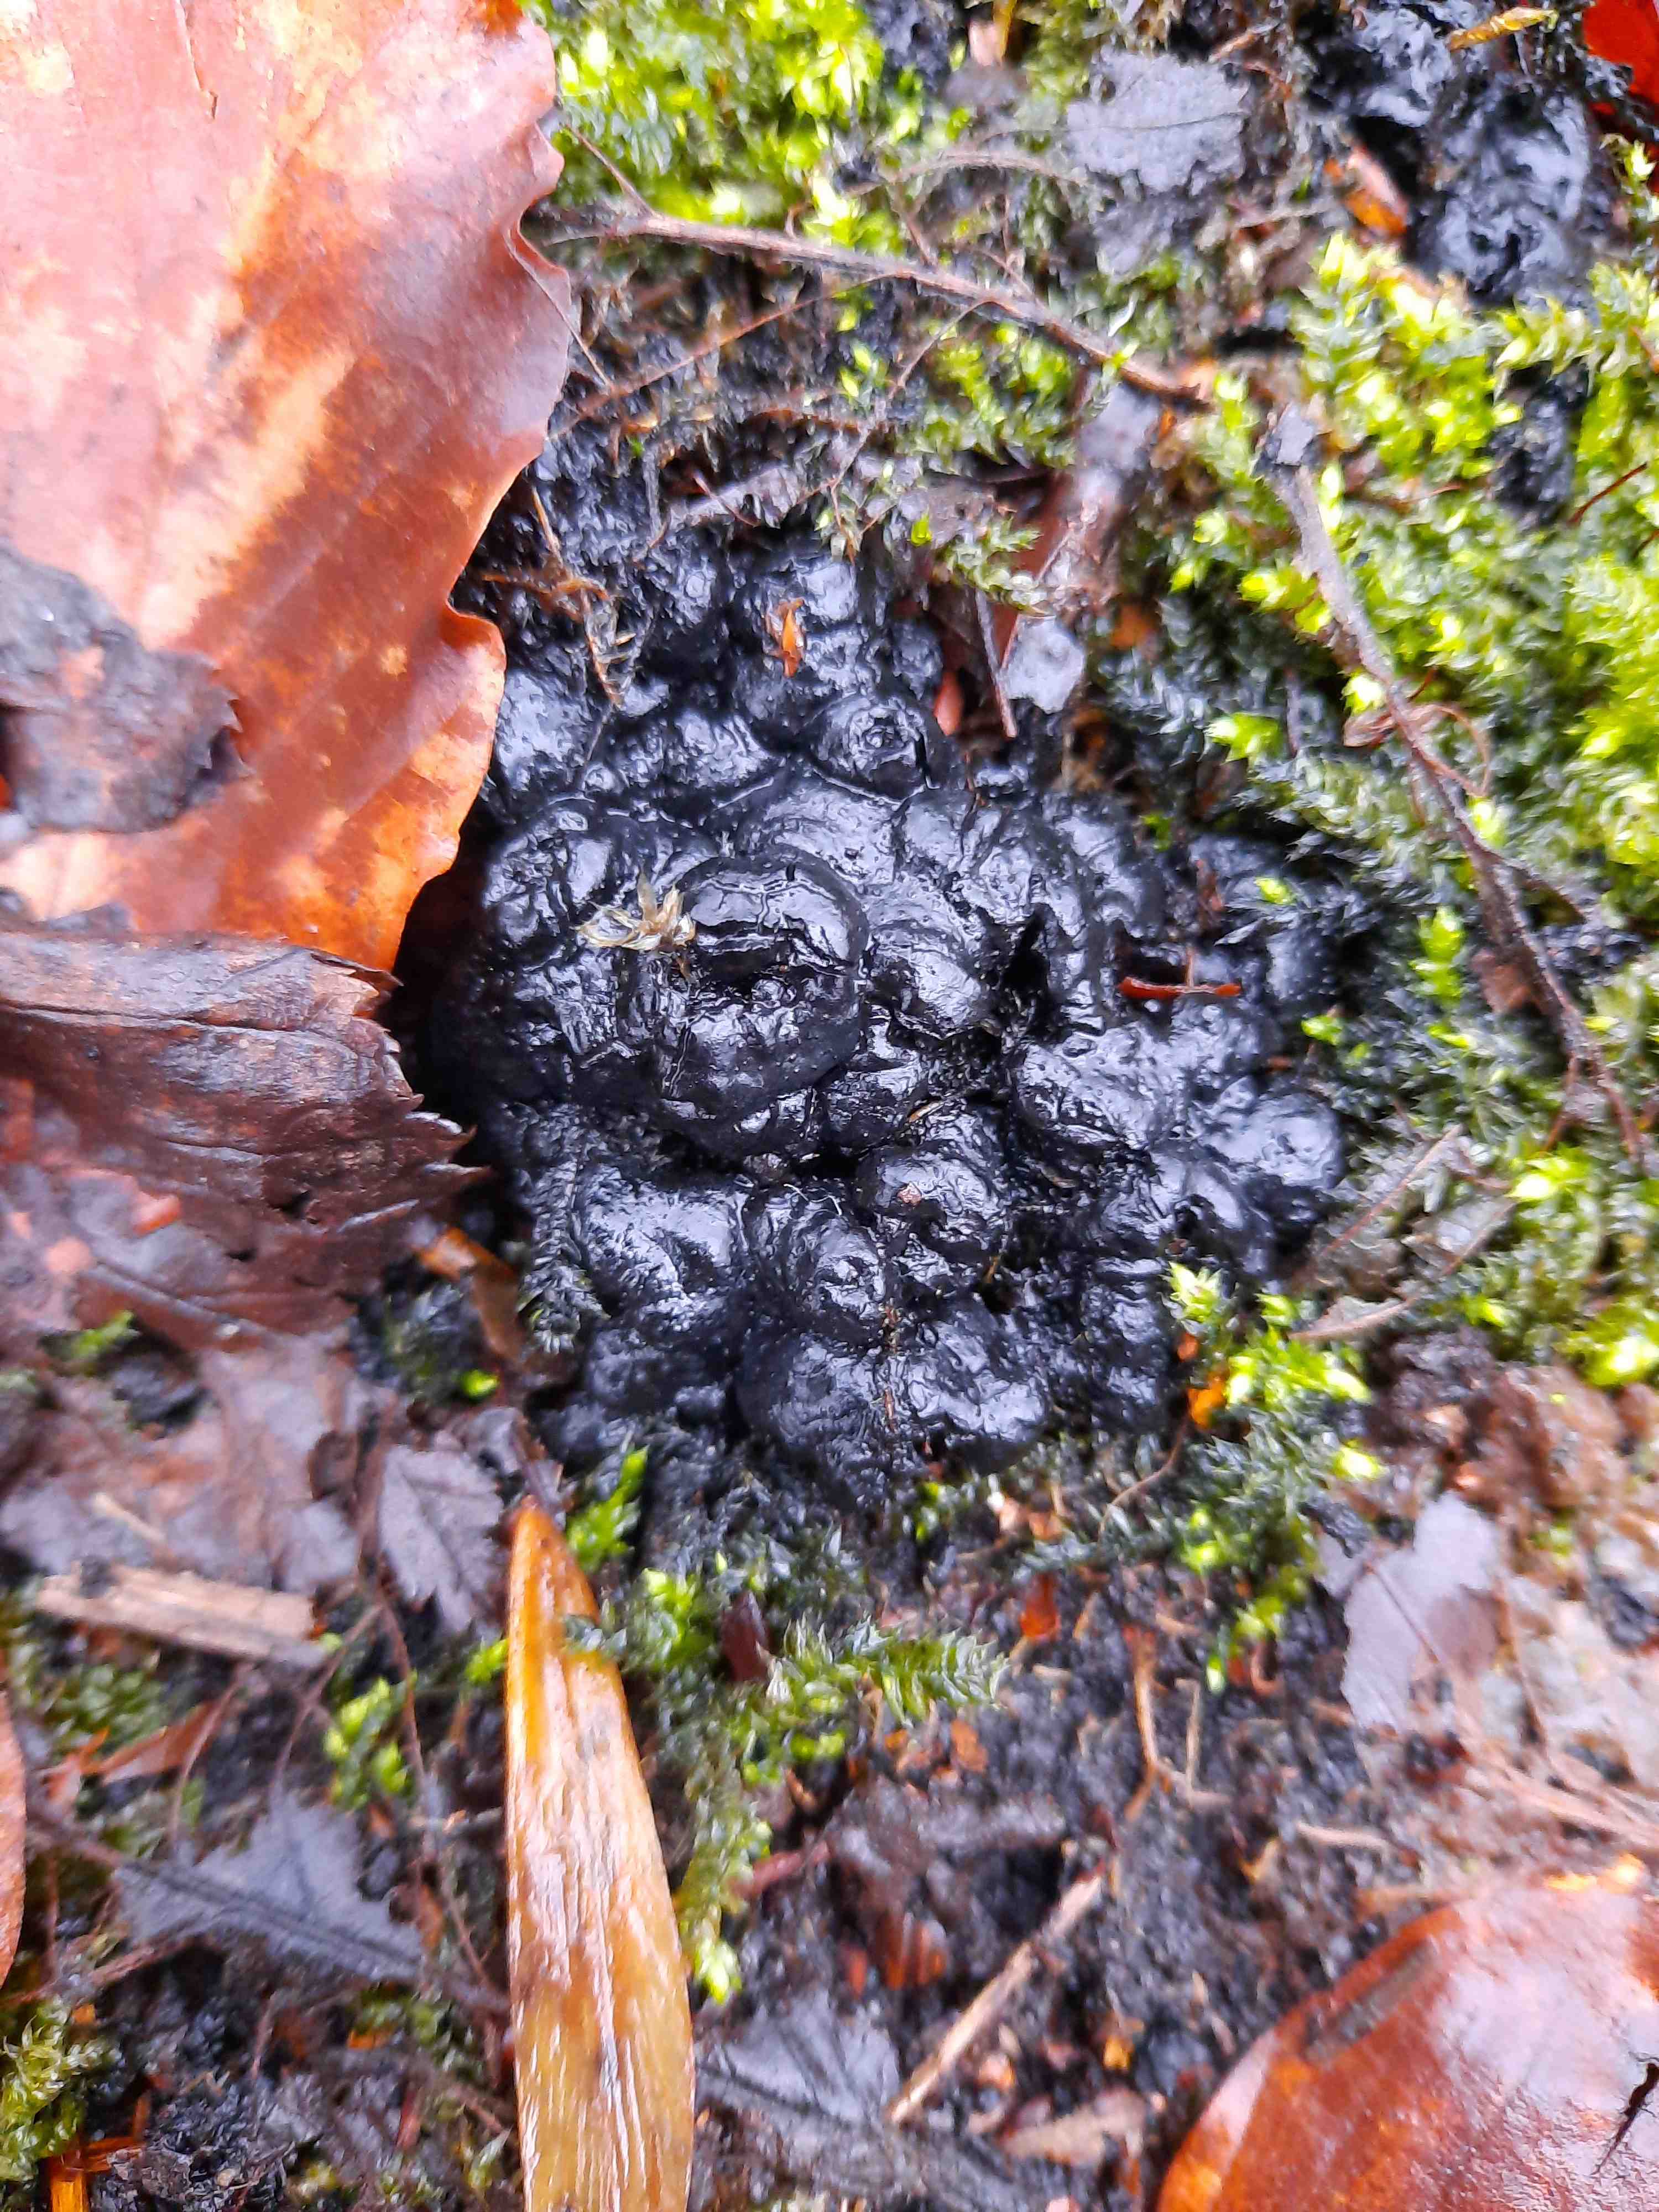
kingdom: Fungi
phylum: Ascomycota
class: Sordariomycetes
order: Xylariales
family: Xylariaceae
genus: Kretzschmaria
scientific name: Kretzschmaria deusta
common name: stor kulsvamp
